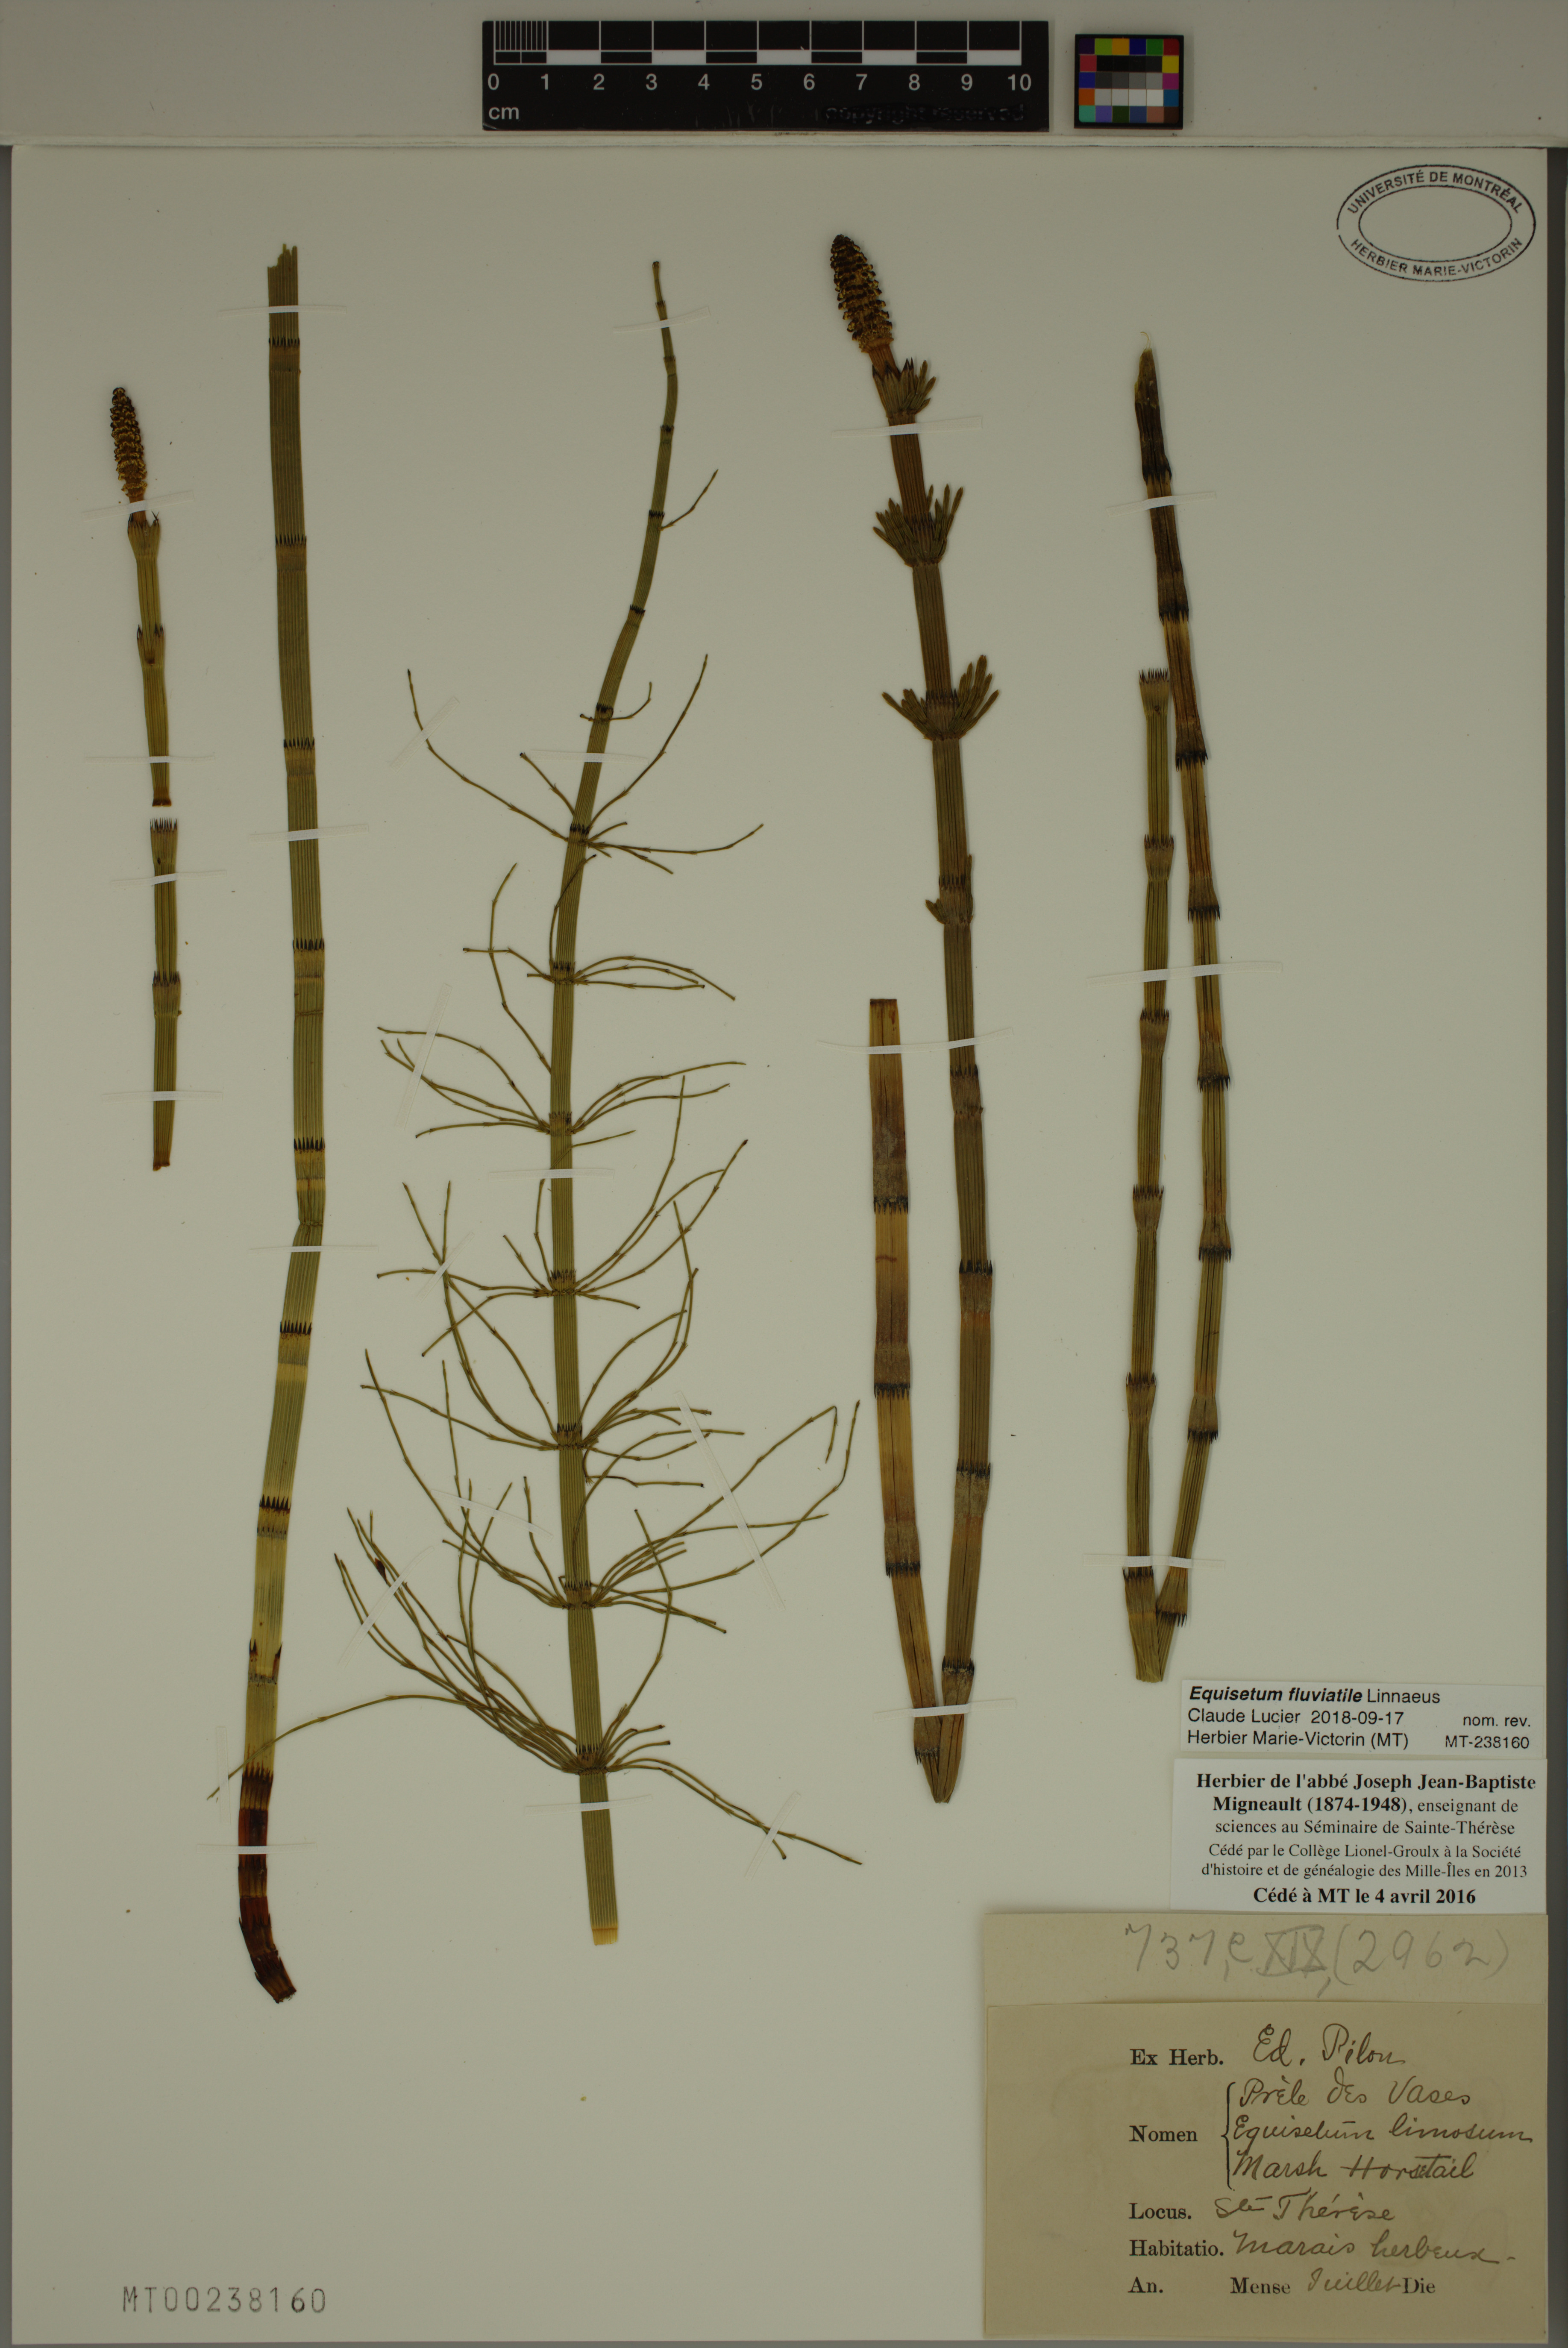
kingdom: Plantae
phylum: Tracheophyta
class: Polypodiopsida
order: Equisetales
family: Equisetaceae
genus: Equisetum
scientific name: Equisetum fluviatile
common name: Water horsetail
